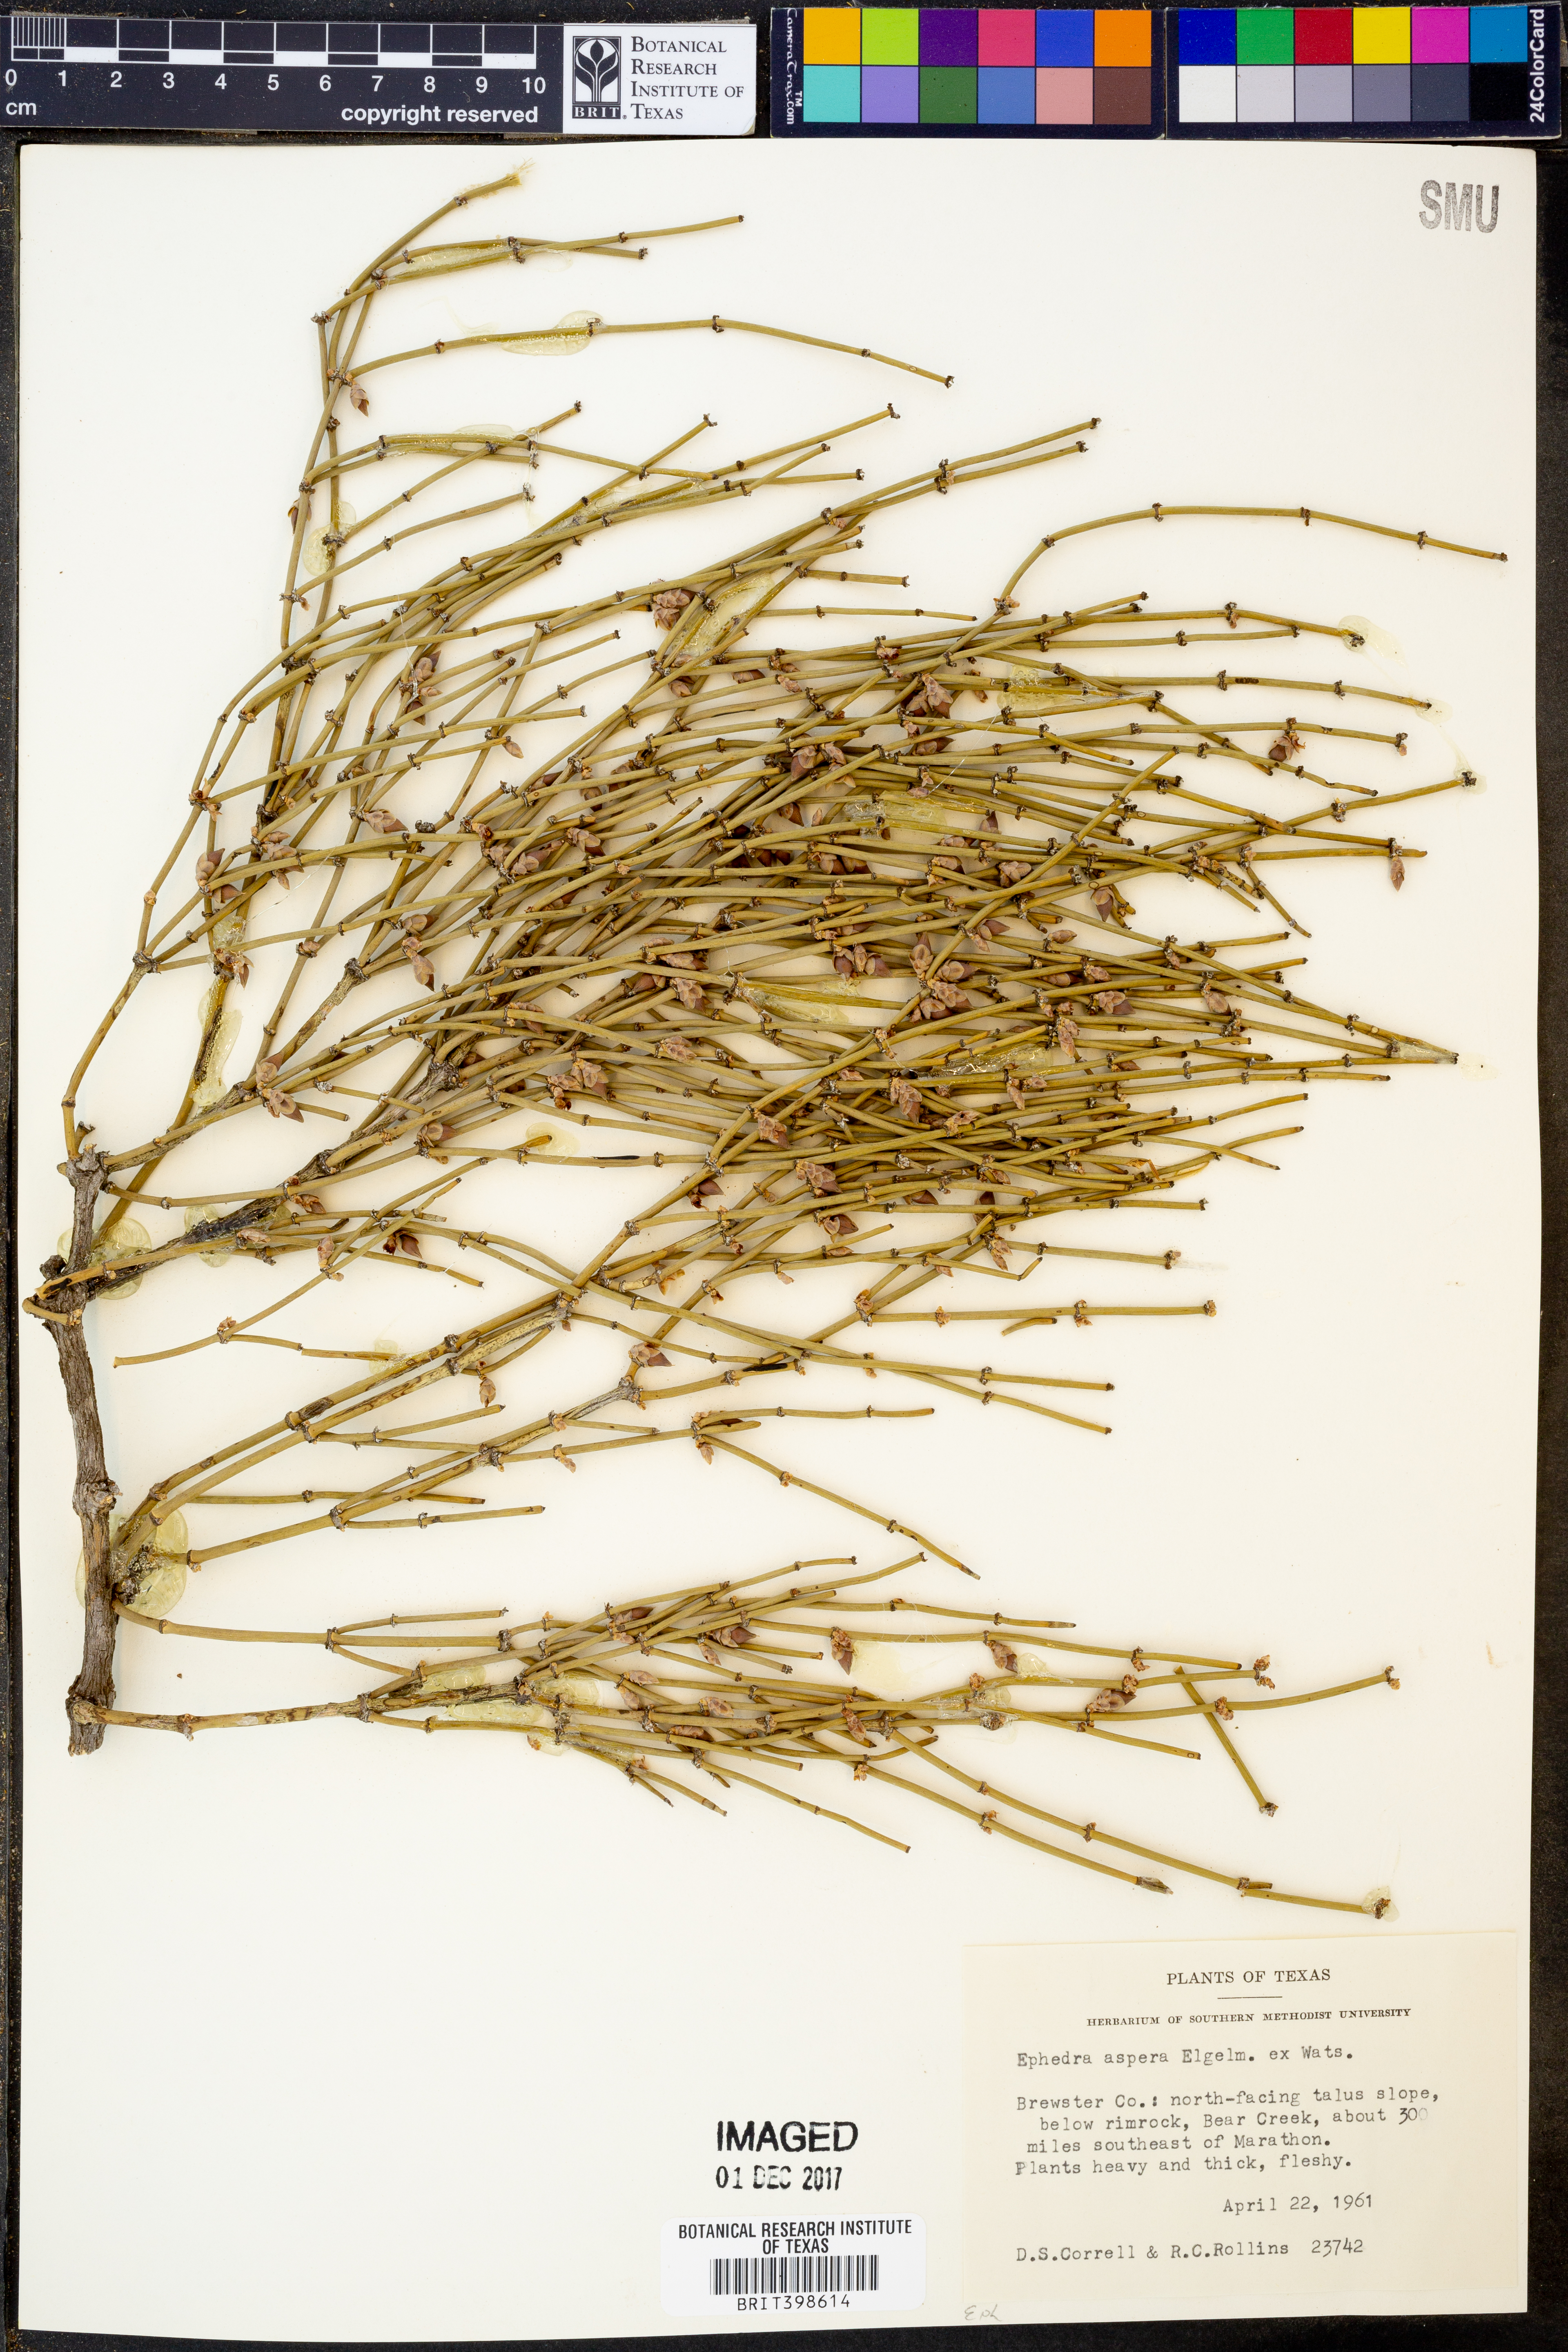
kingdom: Plantae
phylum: Tracheophyta
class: Gnetopsida
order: Ephedrales
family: Ephedraceae
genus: Ephedra
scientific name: Ephedra aspera
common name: Boundary ephedra
